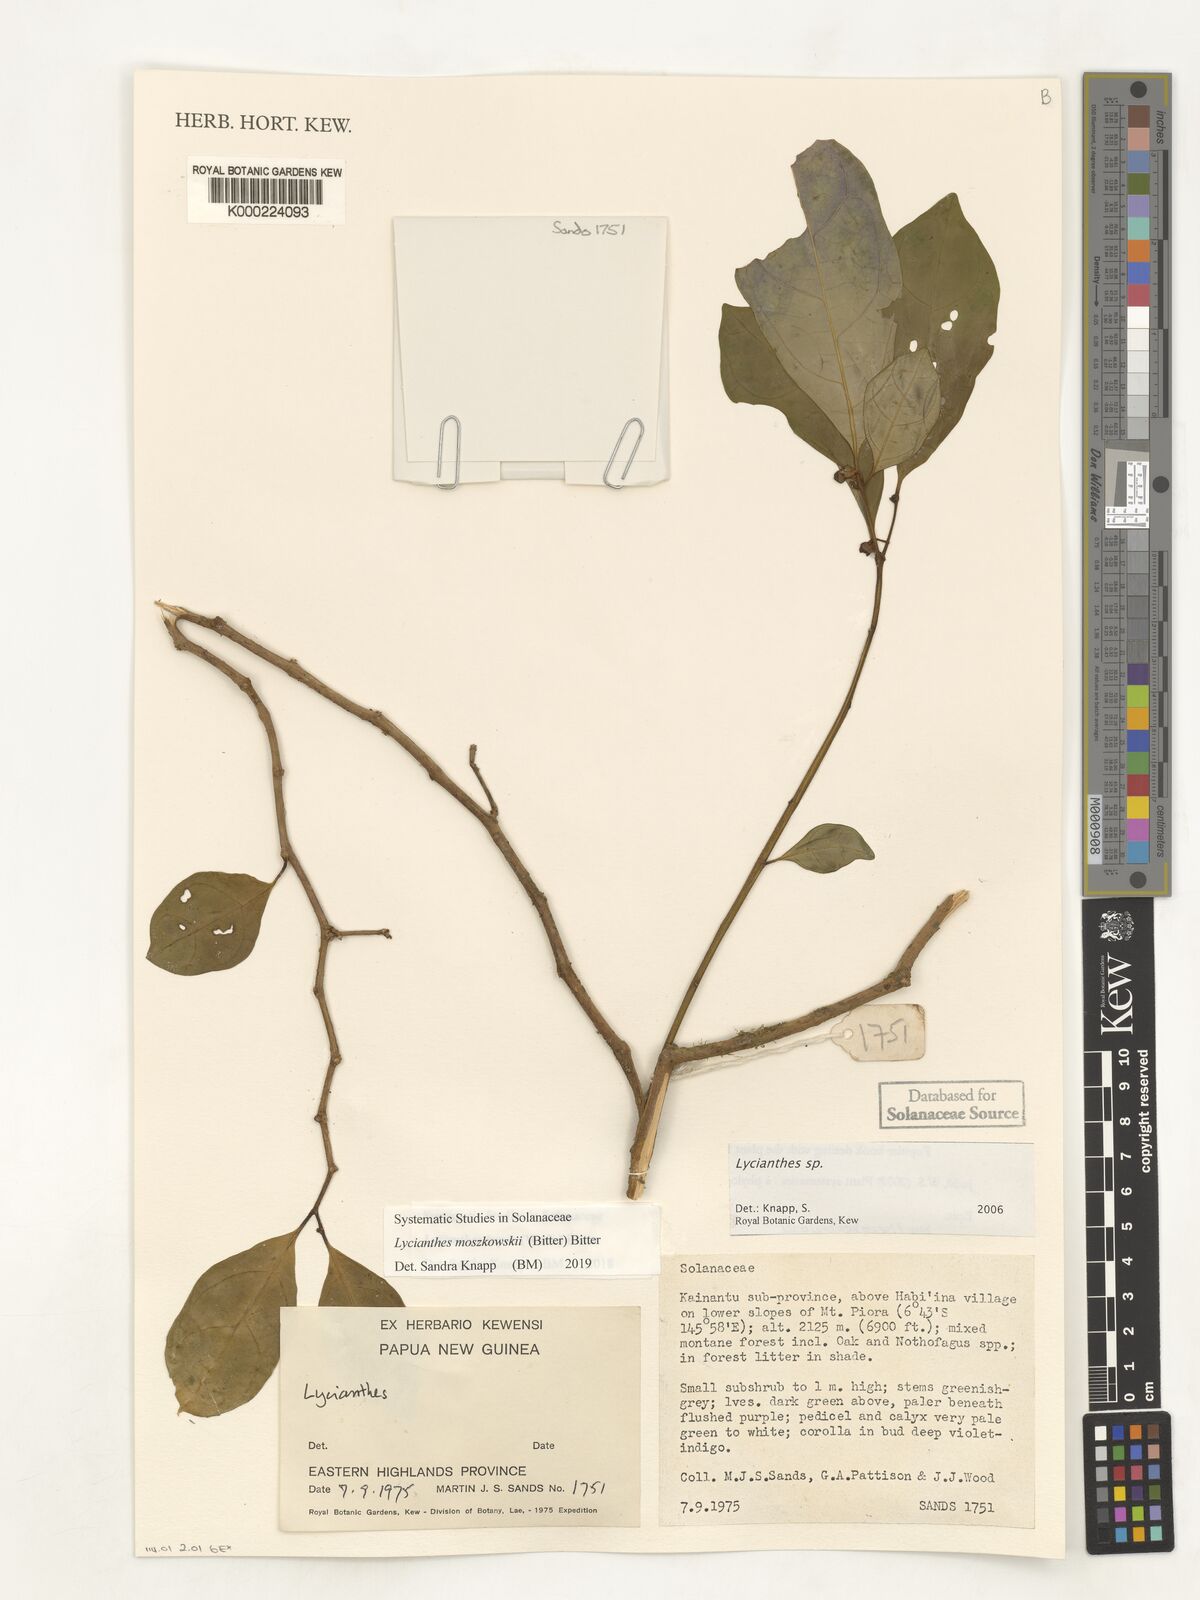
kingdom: Plantae
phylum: Tracheophyta
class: Magnoliopsida
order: Solanales
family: Solanaceae
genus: Lycianthes
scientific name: Lycianthes
